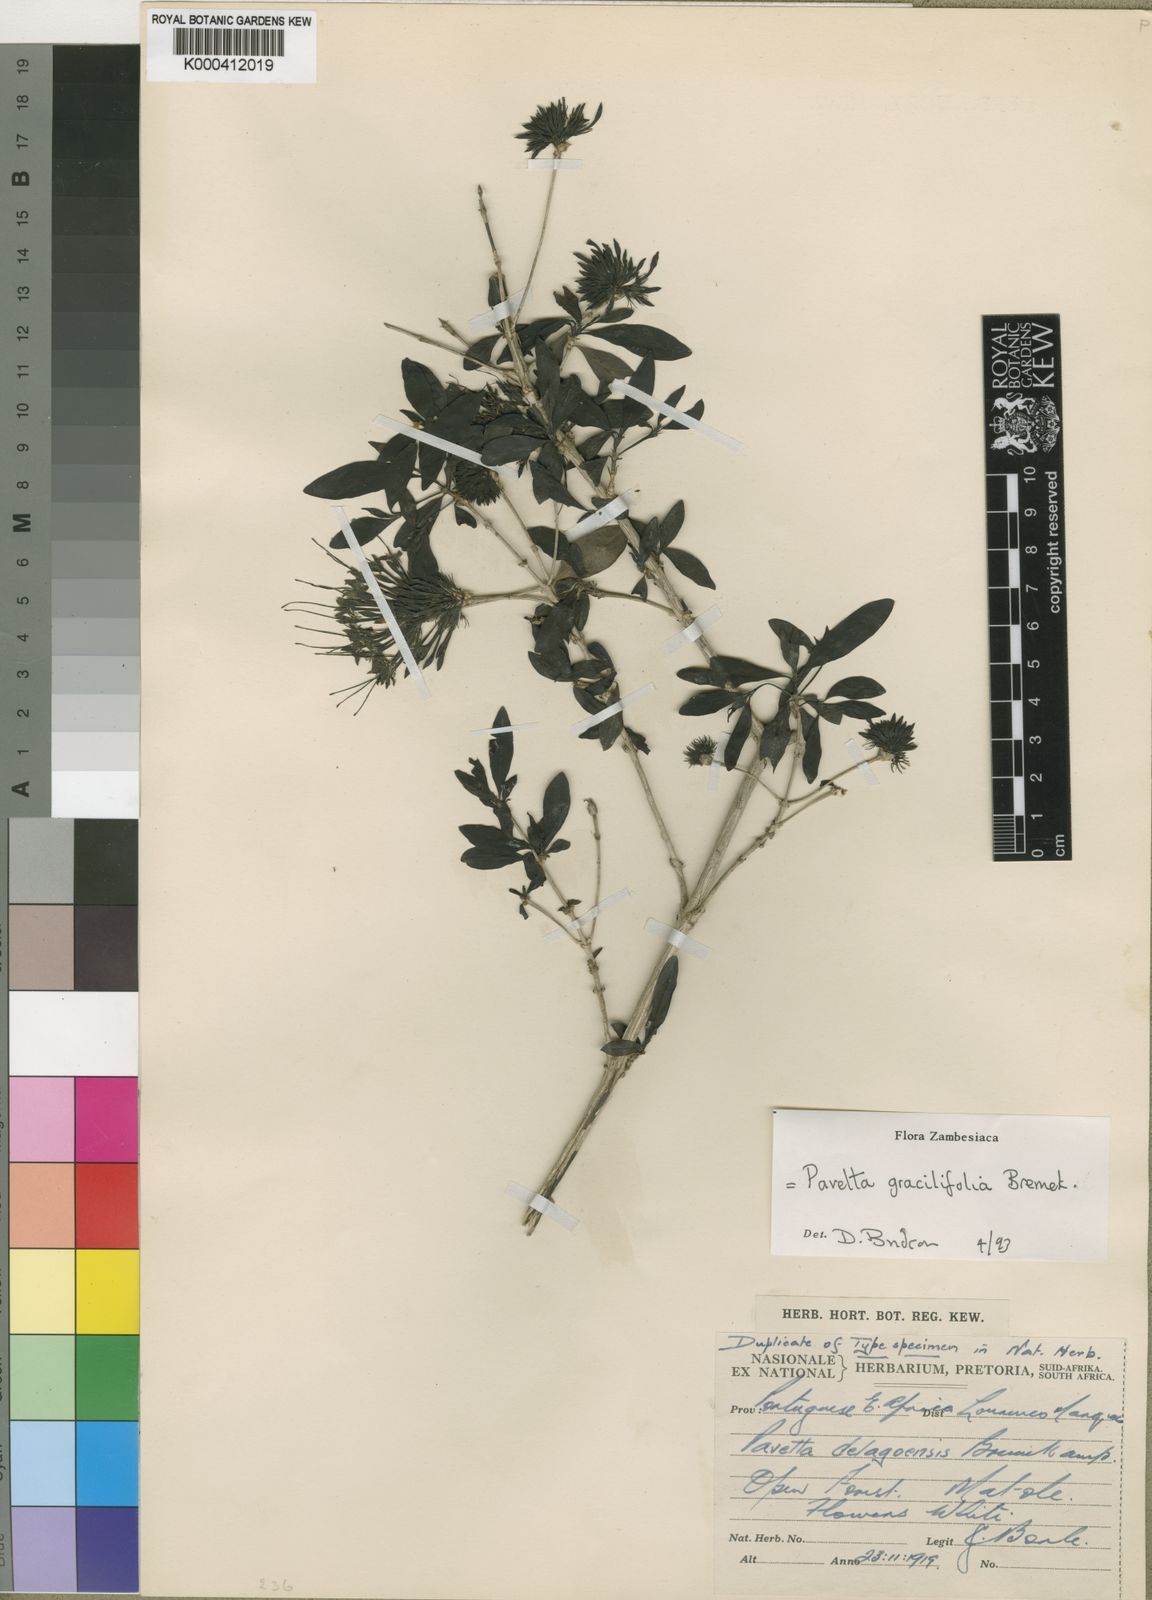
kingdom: Plantae
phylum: Tracheophyta
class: Magnoliopsida
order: Gentianales
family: Rubiaceae
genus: Pavetta
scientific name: Pavetta gracilifolia
